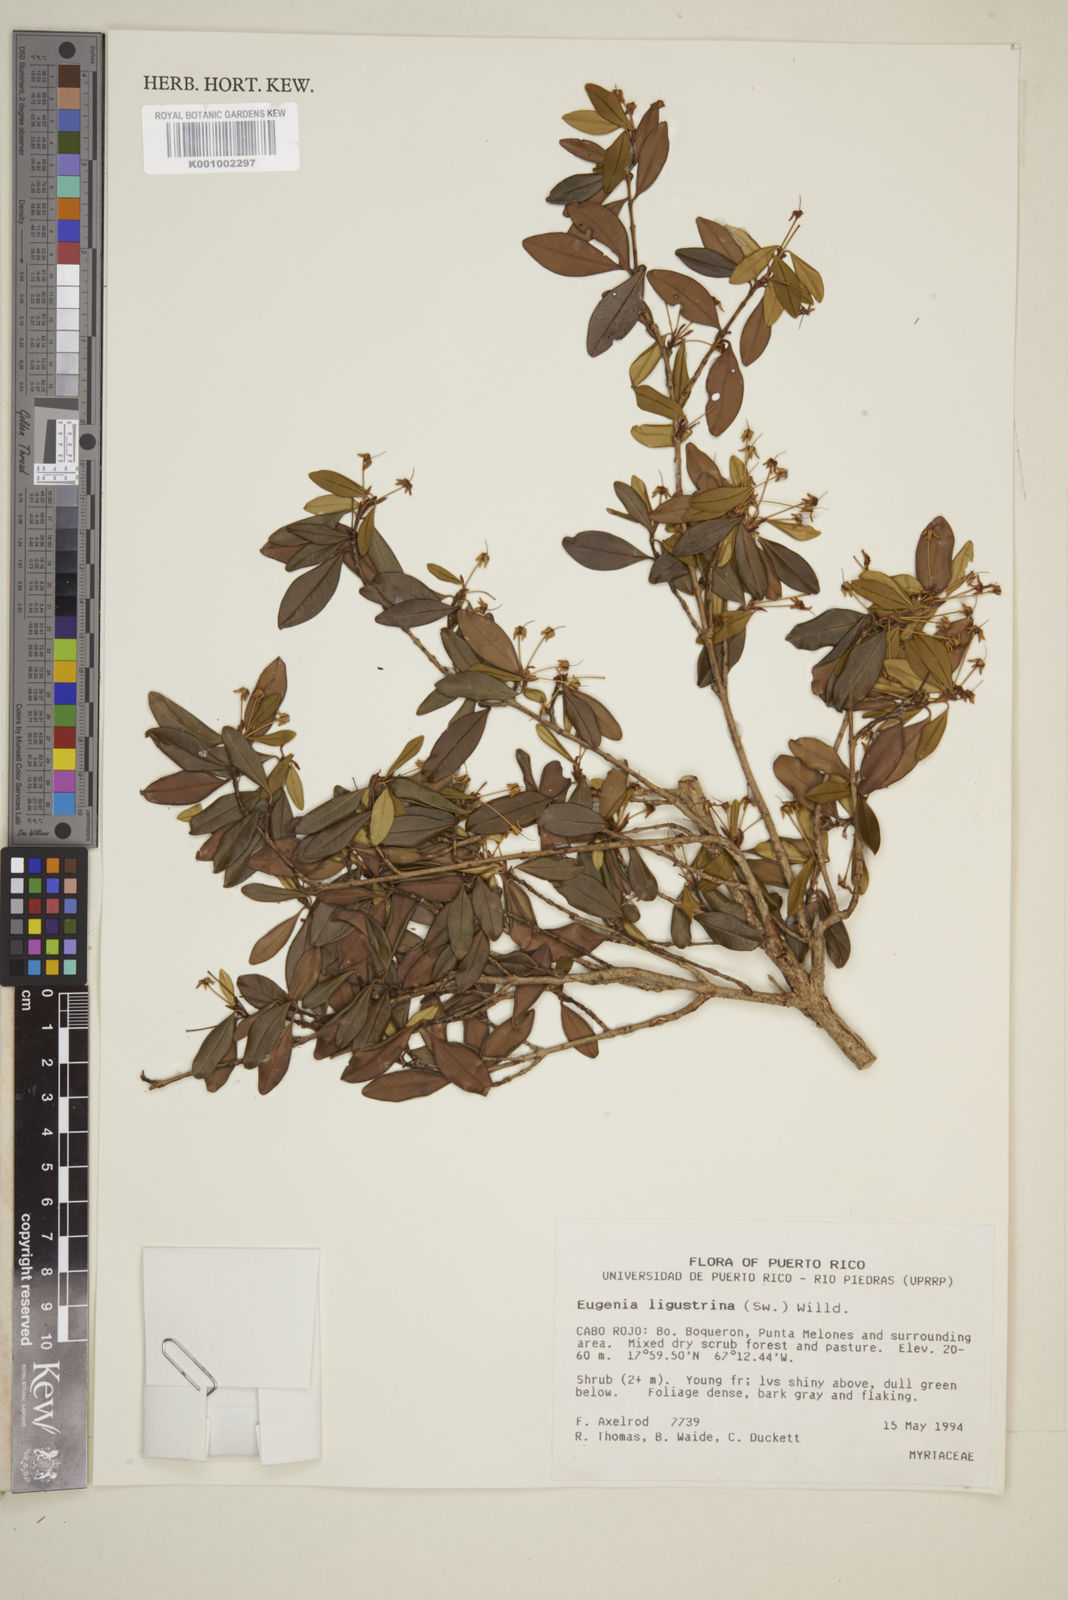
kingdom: Plantae
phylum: Tracheophyta
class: Magnoliopsida
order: Myrtales
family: Myrtaceae
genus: Eugenia
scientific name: Eugenia ligustrina
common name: Privet stopper
